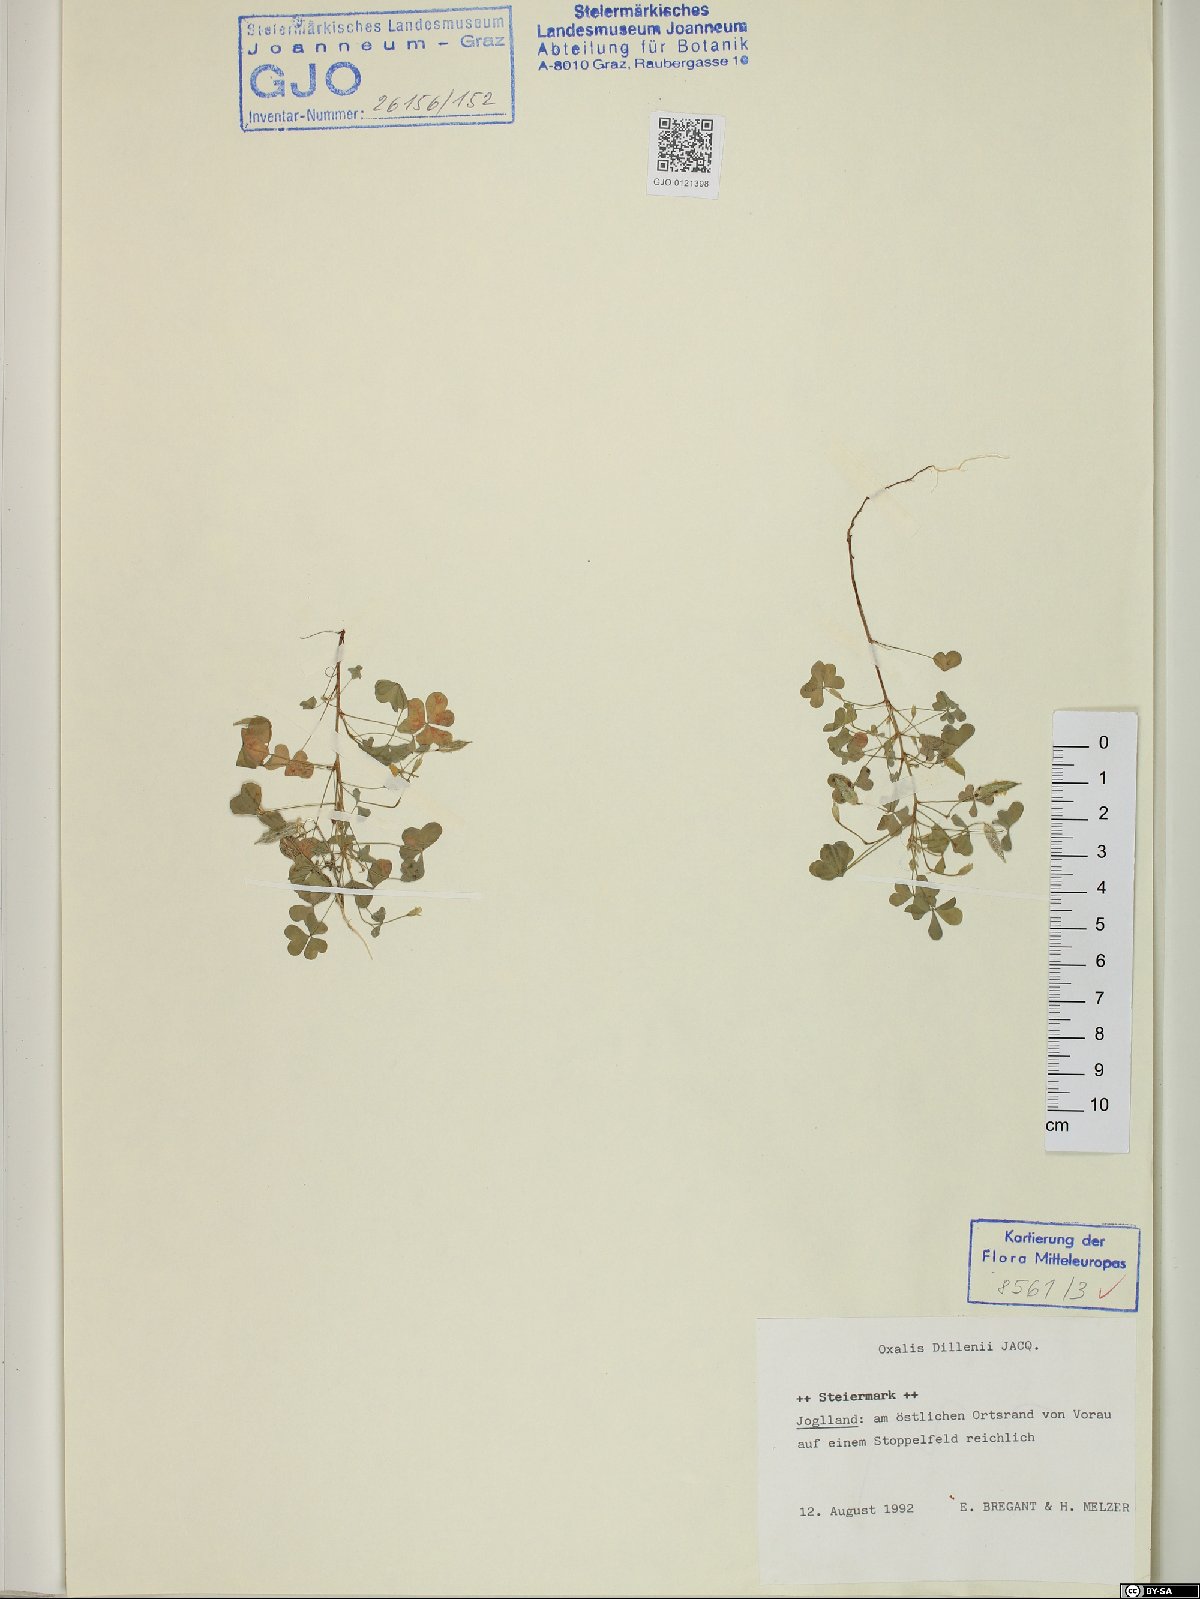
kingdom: Plantae
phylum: Tracheophyta
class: Magnoliopsida
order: Oxalidales
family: Oxalidaceae
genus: Oxalis
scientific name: Oxalis dillenii
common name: Sussex yellow-sorrel
